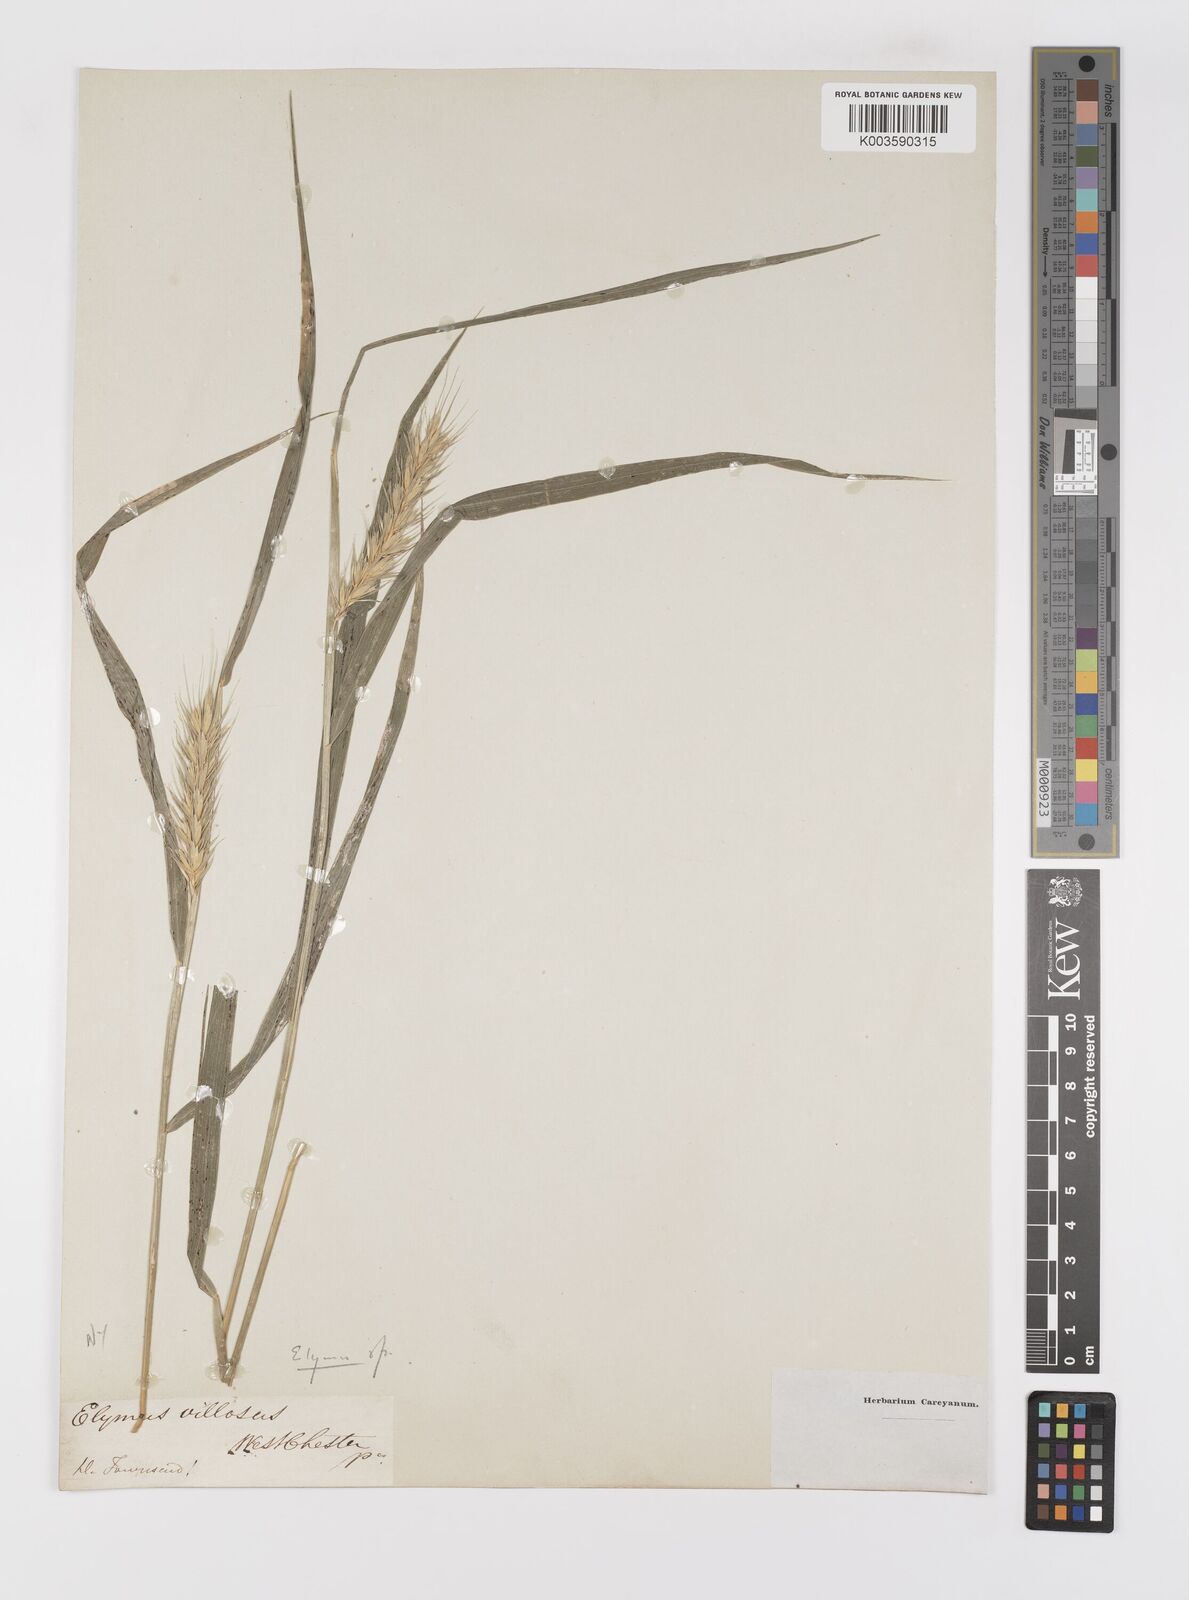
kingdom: Plantae
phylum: Tracheophyta
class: Liliopsida
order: Poales
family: Poaceae
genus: Elymus
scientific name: Elymus
